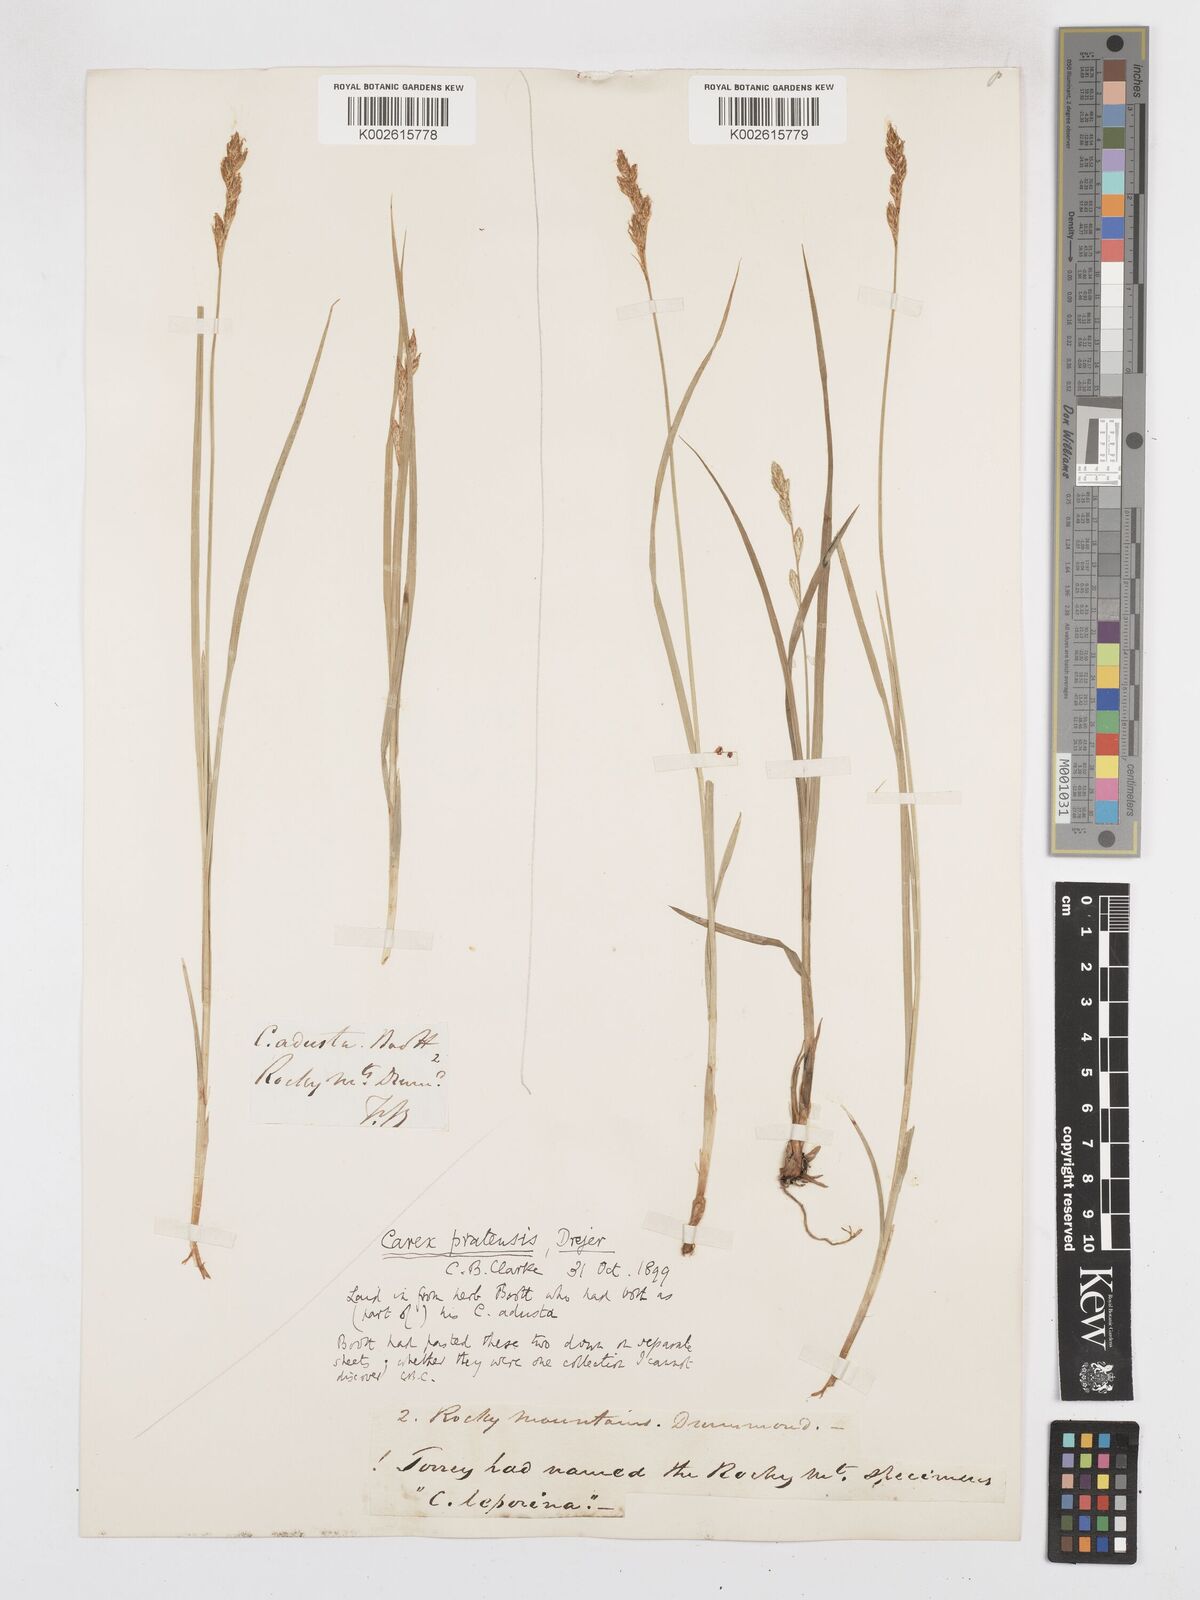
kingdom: Plantae
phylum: Tracheophyta
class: Liliopsida
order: Poales
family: Cyperaceae
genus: Carex
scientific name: Carex praticola
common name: Large-fruited oval sedge
